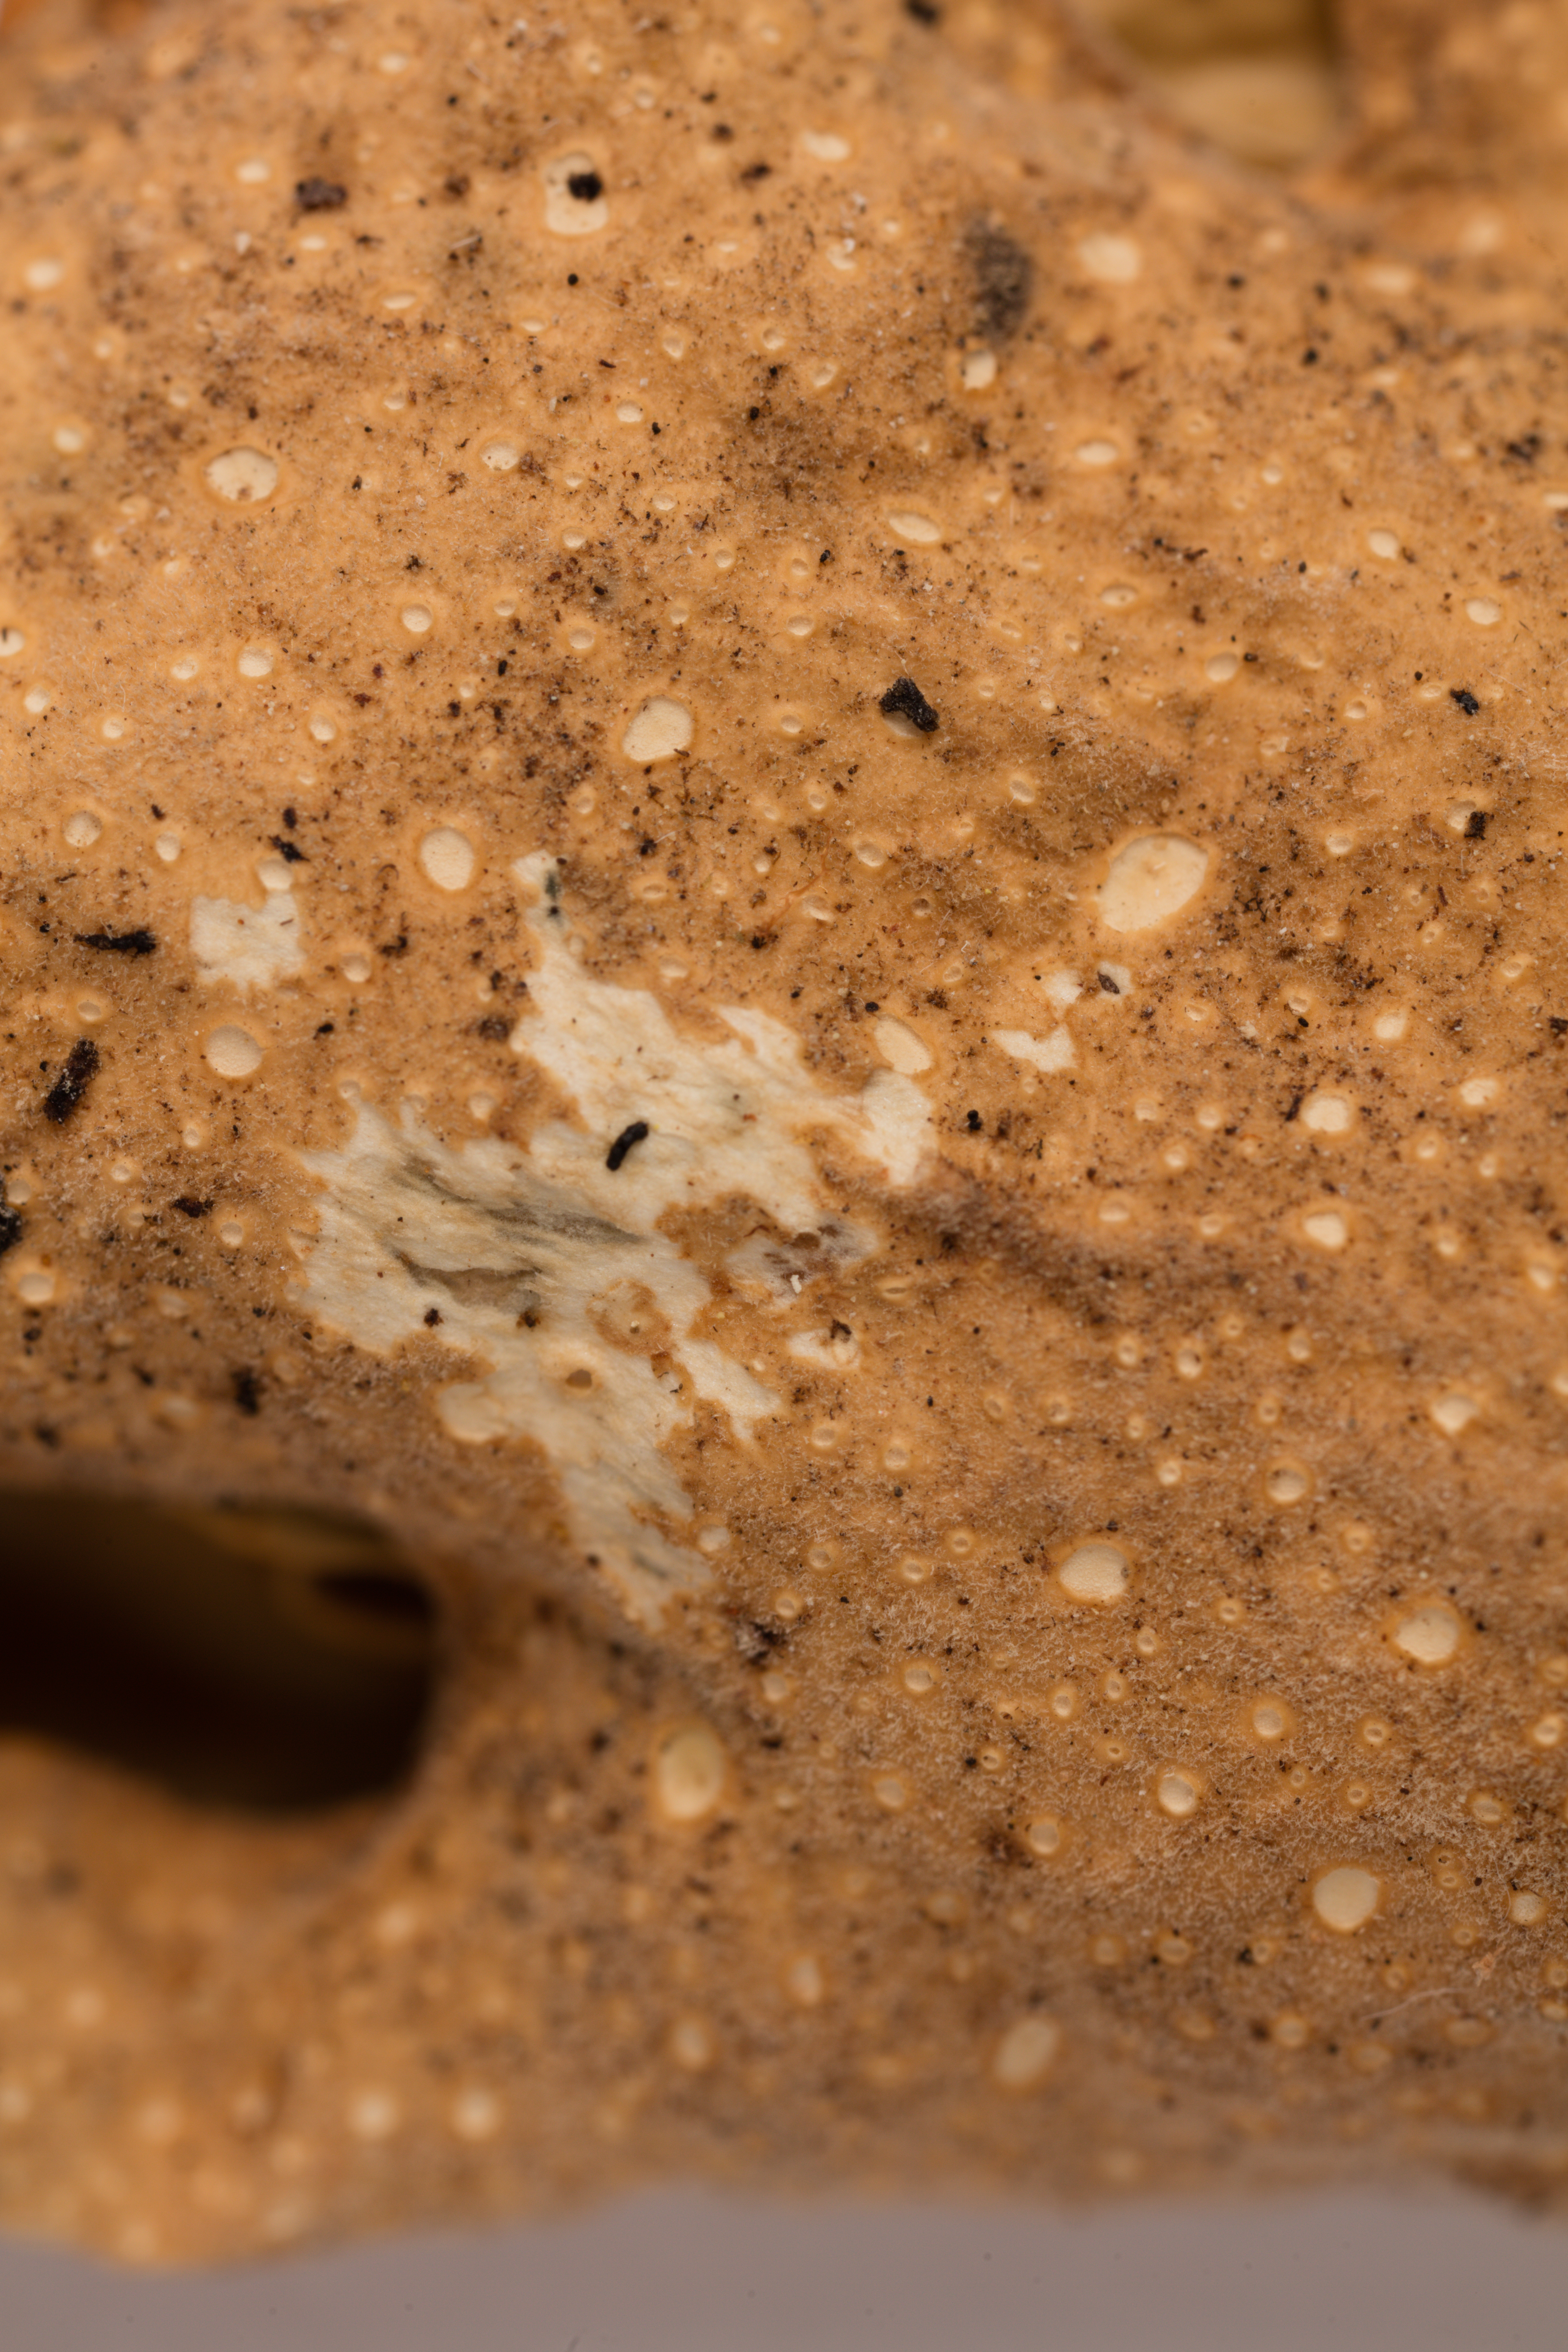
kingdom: Fungi
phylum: Ascomycota
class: Lecanoromycetes
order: Peltigerales
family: Lobariaceae
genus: Sticta
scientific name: Sticta latifrons
